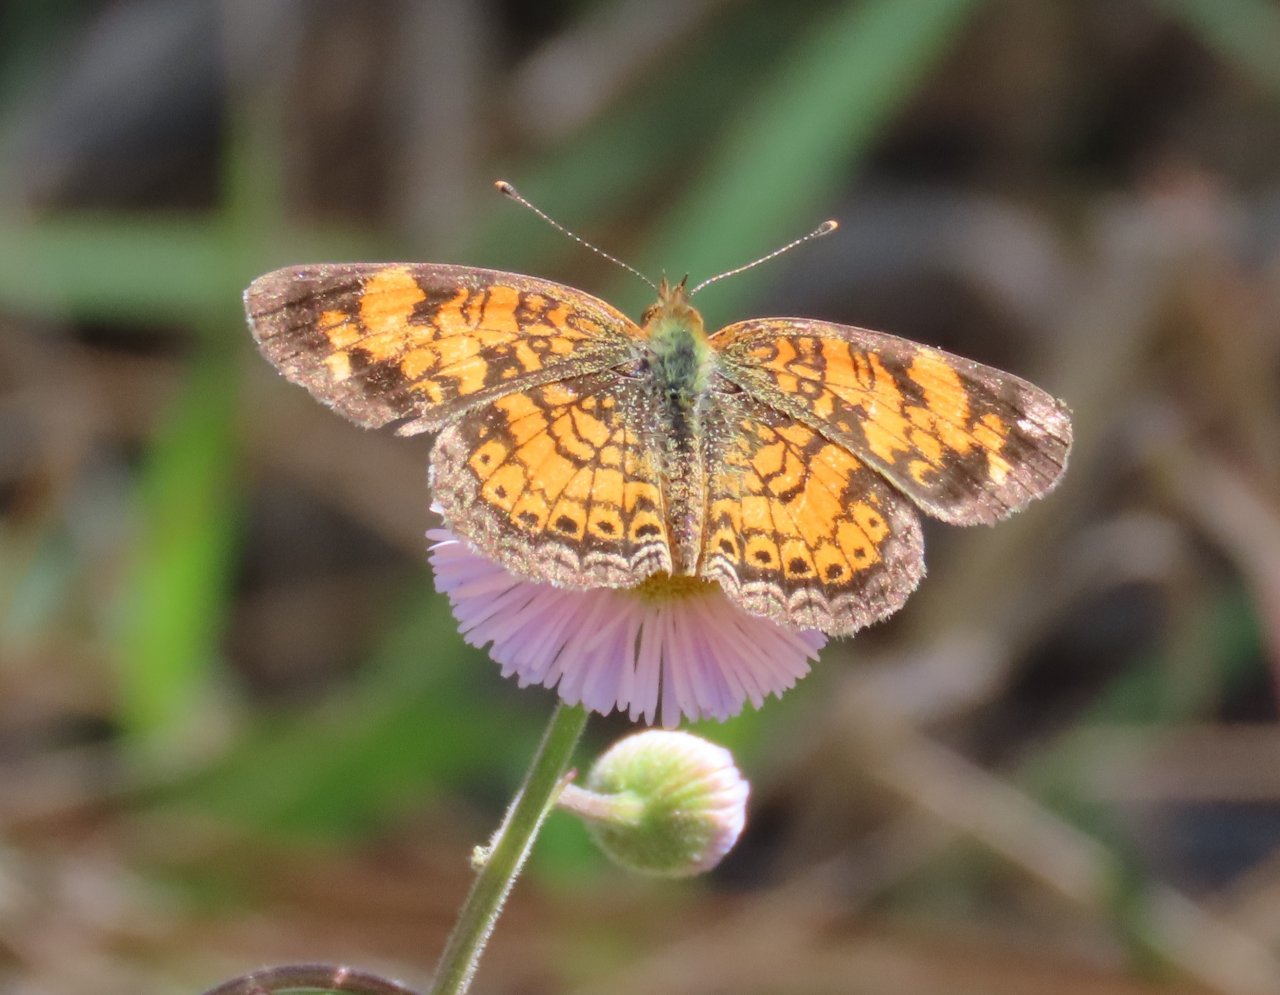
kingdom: Animalia
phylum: Arthropoda
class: Insecta
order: Lepidoptera
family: Nymphalidae
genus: Phyciodes
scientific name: Phyciodes tharos
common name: Pearl Crescent
